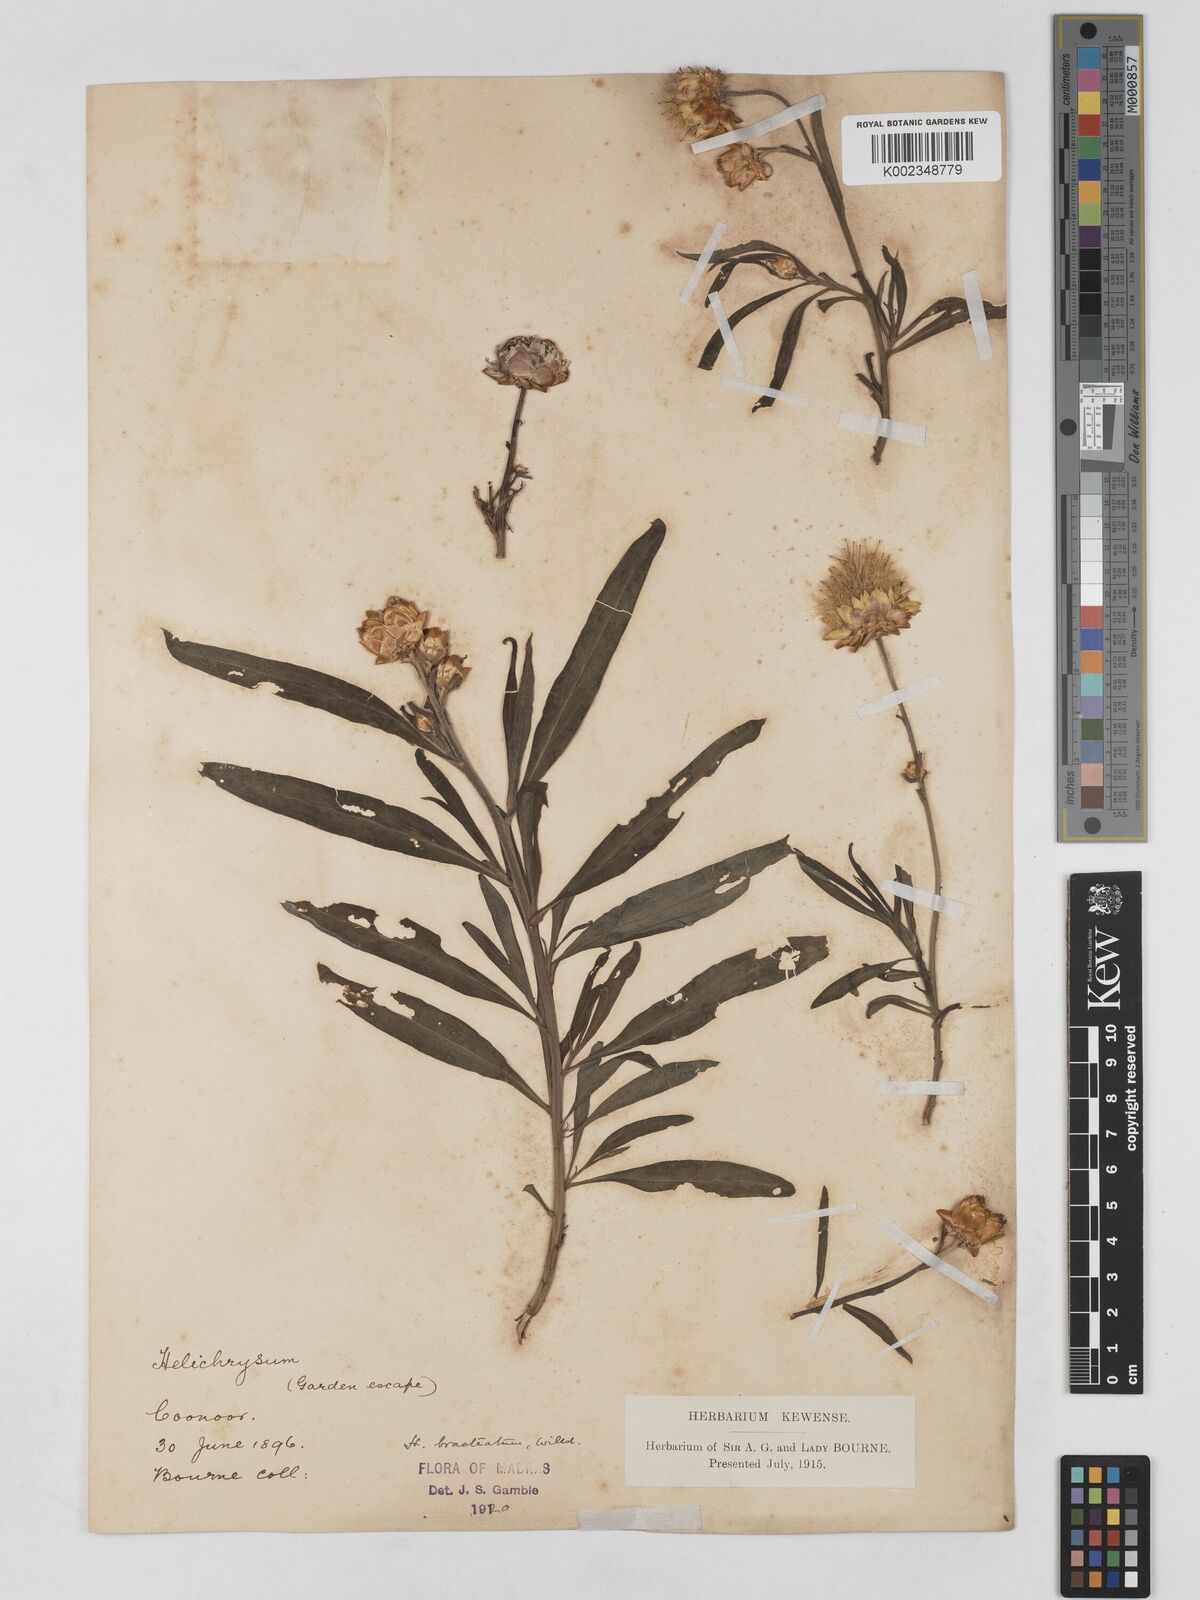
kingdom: Plantae
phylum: Tracheophyta
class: Magnoliopsida
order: Asterales
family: Asteraceae
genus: Xerochrysum
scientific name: Xerochrysum bracteatum
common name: Bracted strawflower
